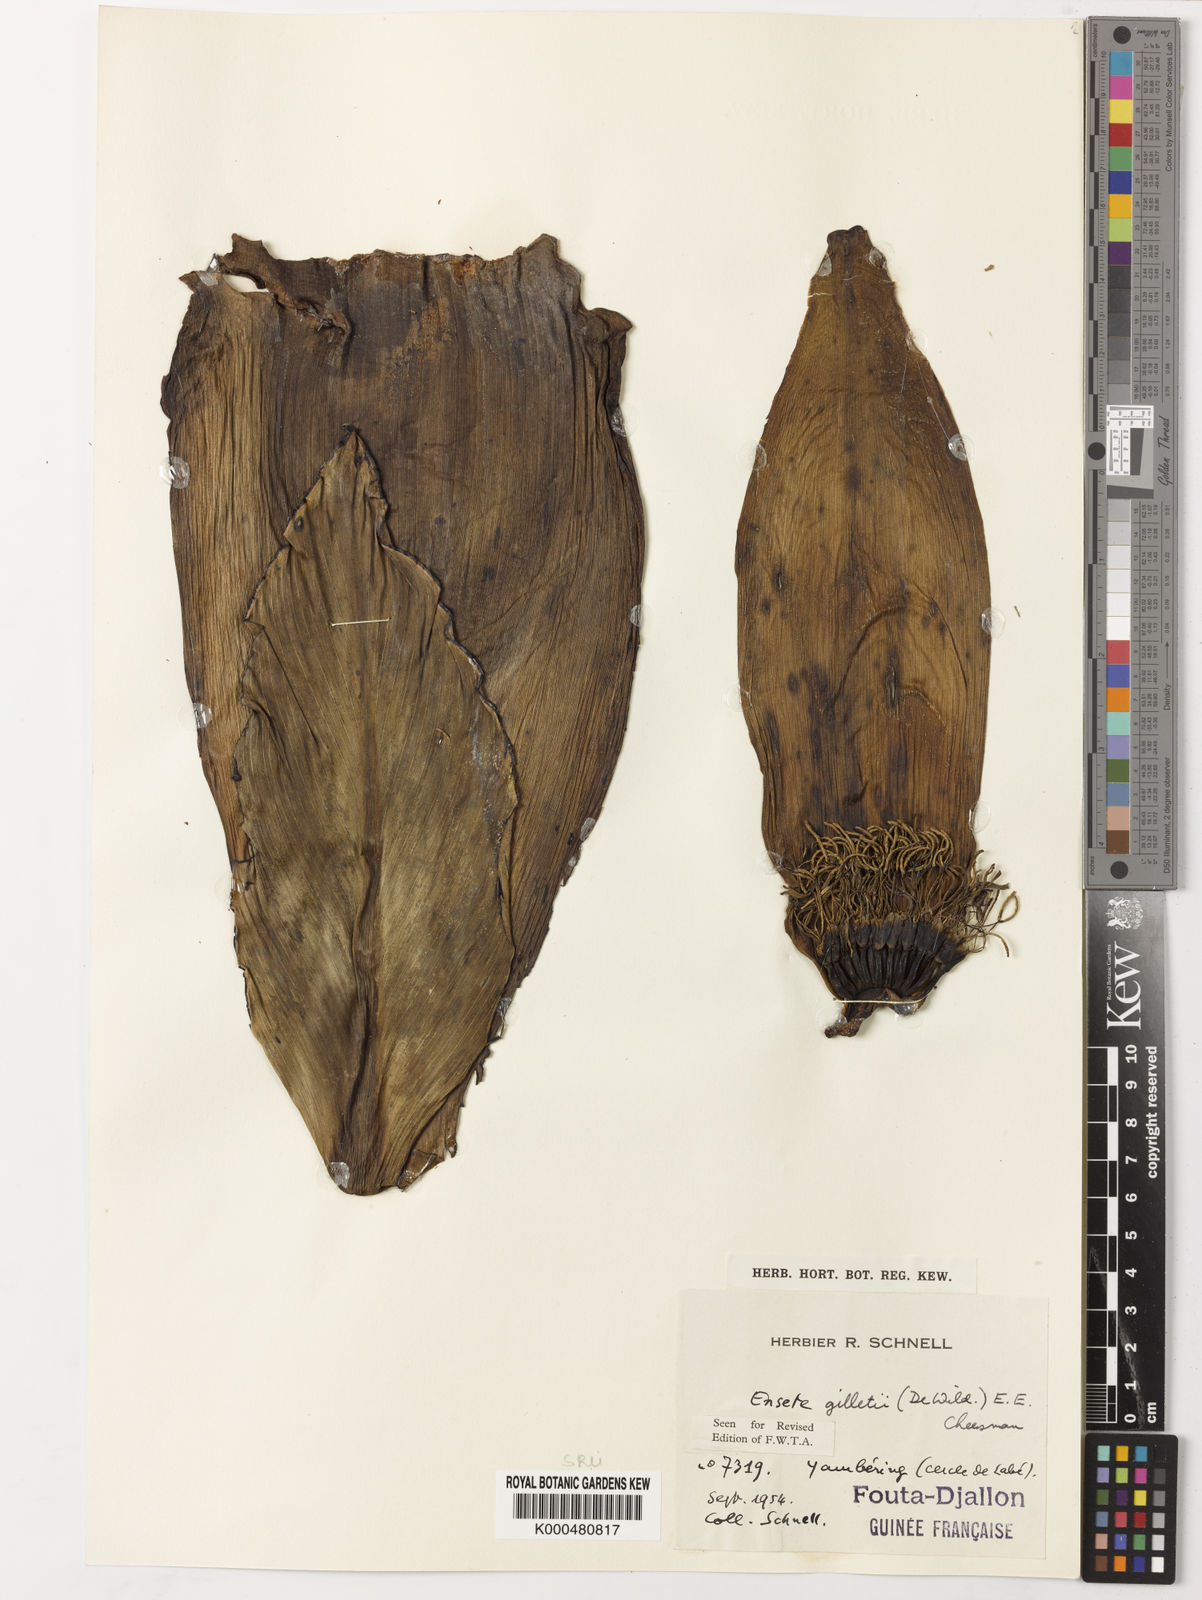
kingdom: Plantae
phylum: Tracheophyta
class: Liliopsida
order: Zingiberales
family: Musaceae
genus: Ensete
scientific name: Ensete livingstonianum
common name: Livingston's banana
